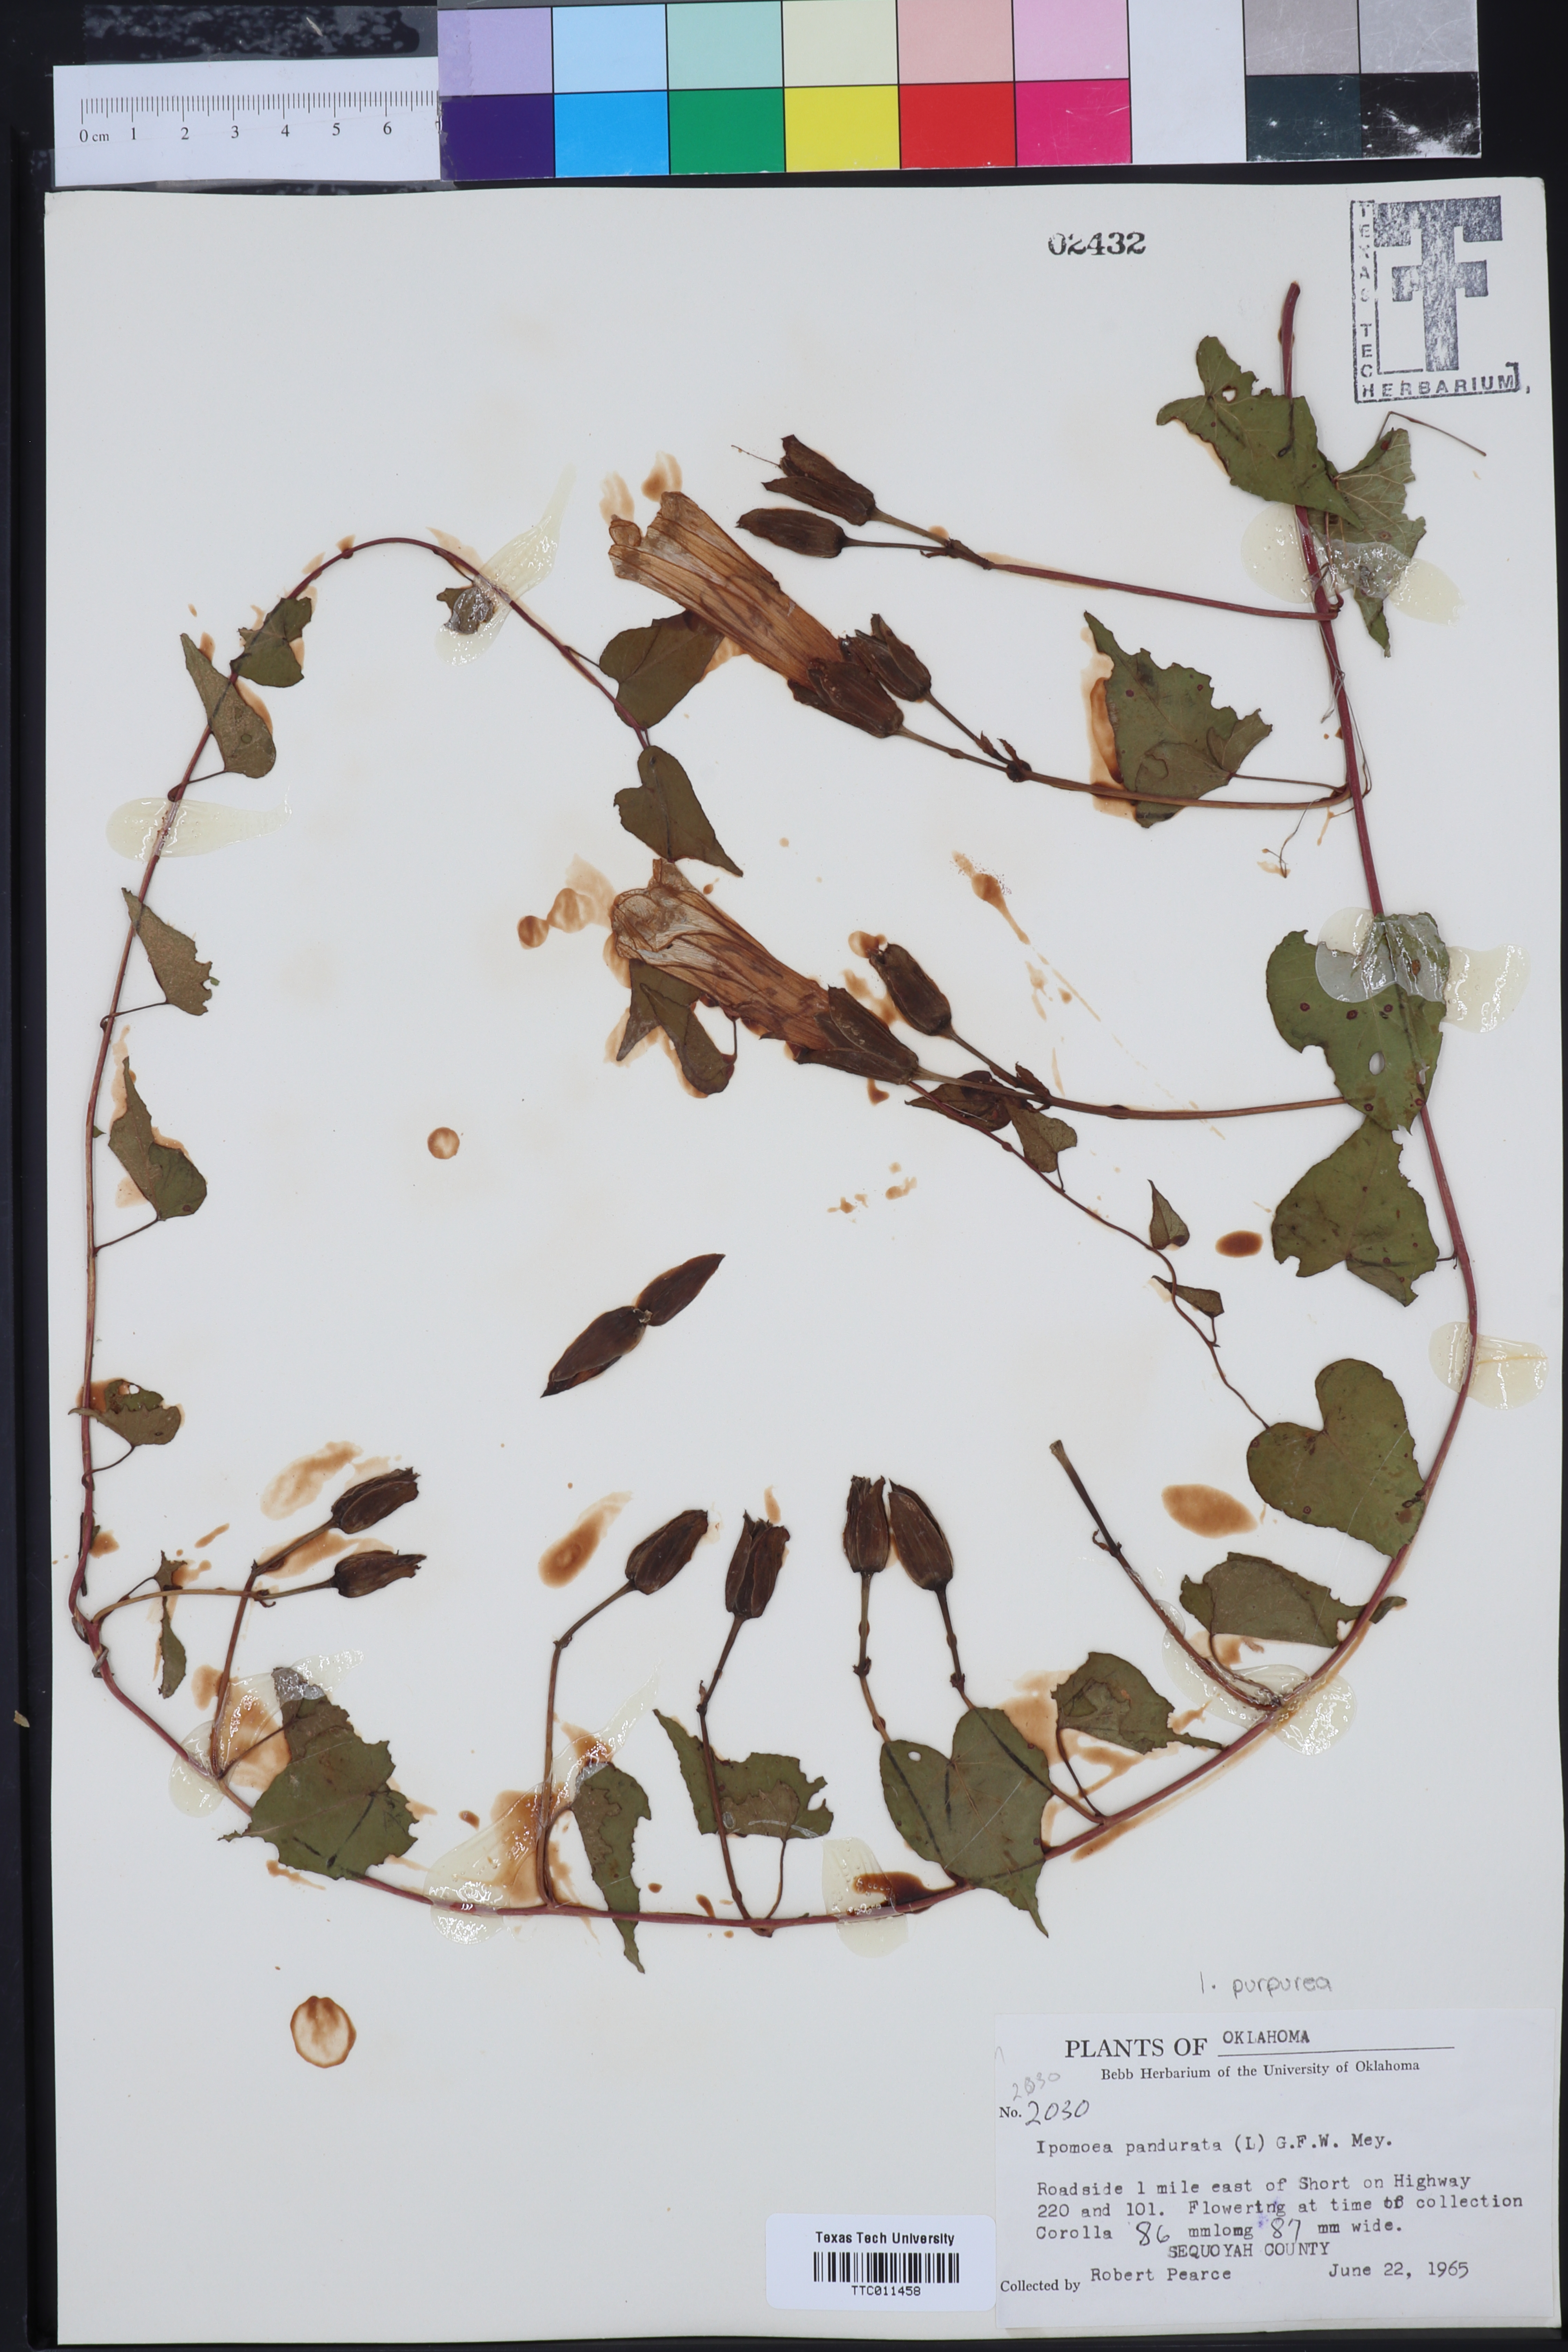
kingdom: Plantae
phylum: Tracheophyta
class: Magnoliopsida
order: Solanales
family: Convolvulaceae
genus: Ipomoea
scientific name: Ipomoea pandurata
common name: Man-of-the-earth
